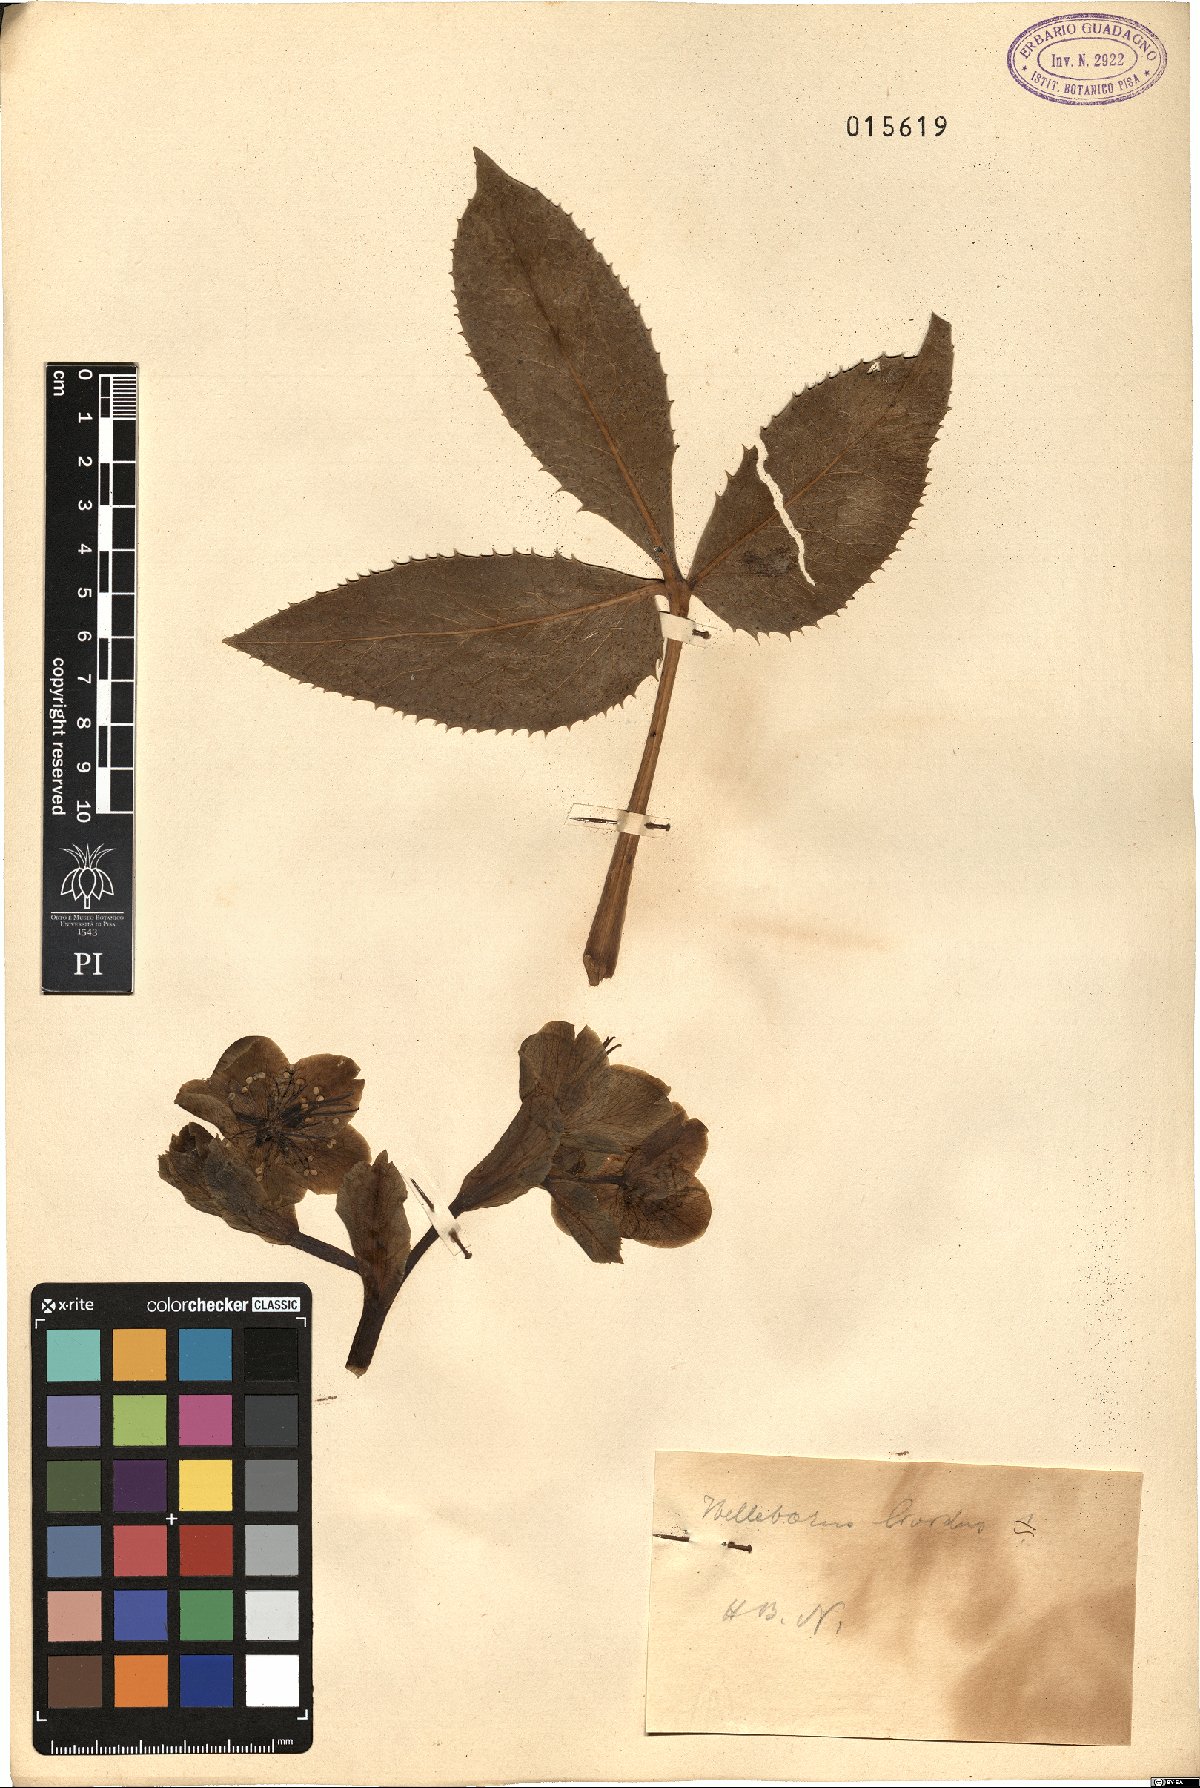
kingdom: Plantae
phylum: Tracheophyta
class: Magnoliopsida
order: Ranunculales
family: Ranunculaceae
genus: Helleborus
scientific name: Helleborus lividus
